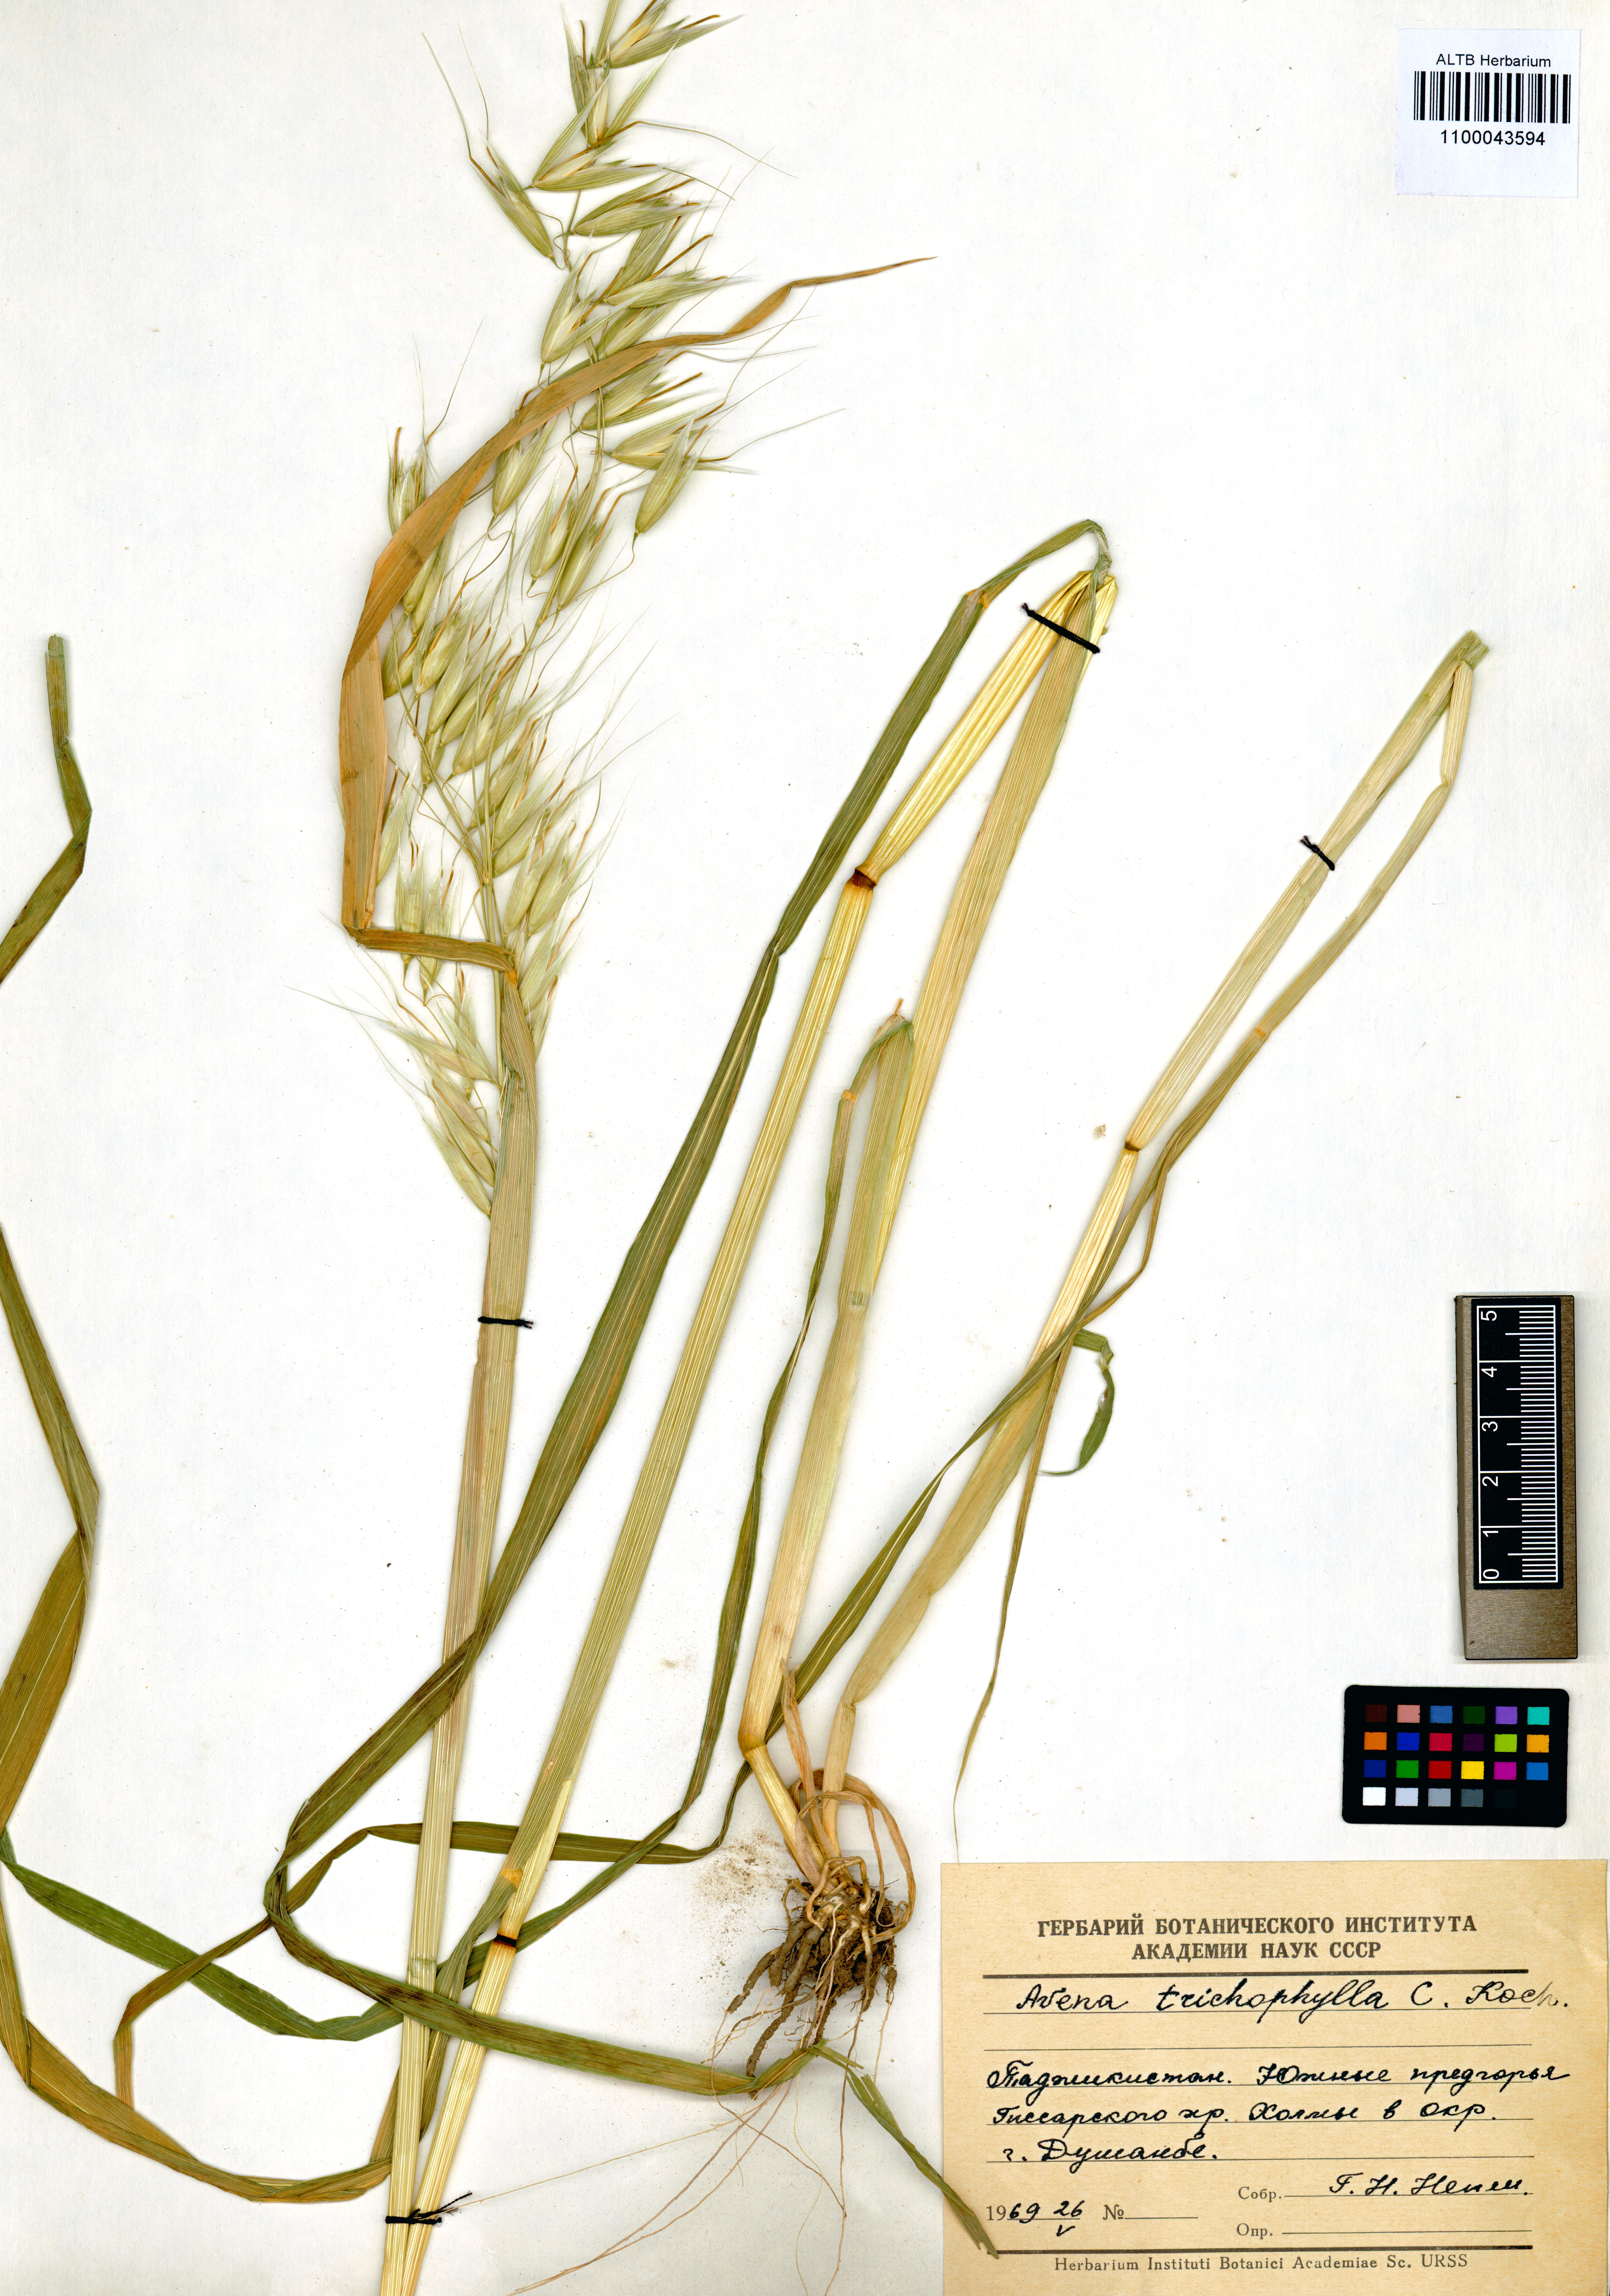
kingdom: Plantae
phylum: Tracheophyta
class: Liliopsida
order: Poales
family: Poaceae
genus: Avena
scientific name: Avena sterilis
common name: Animated oat
